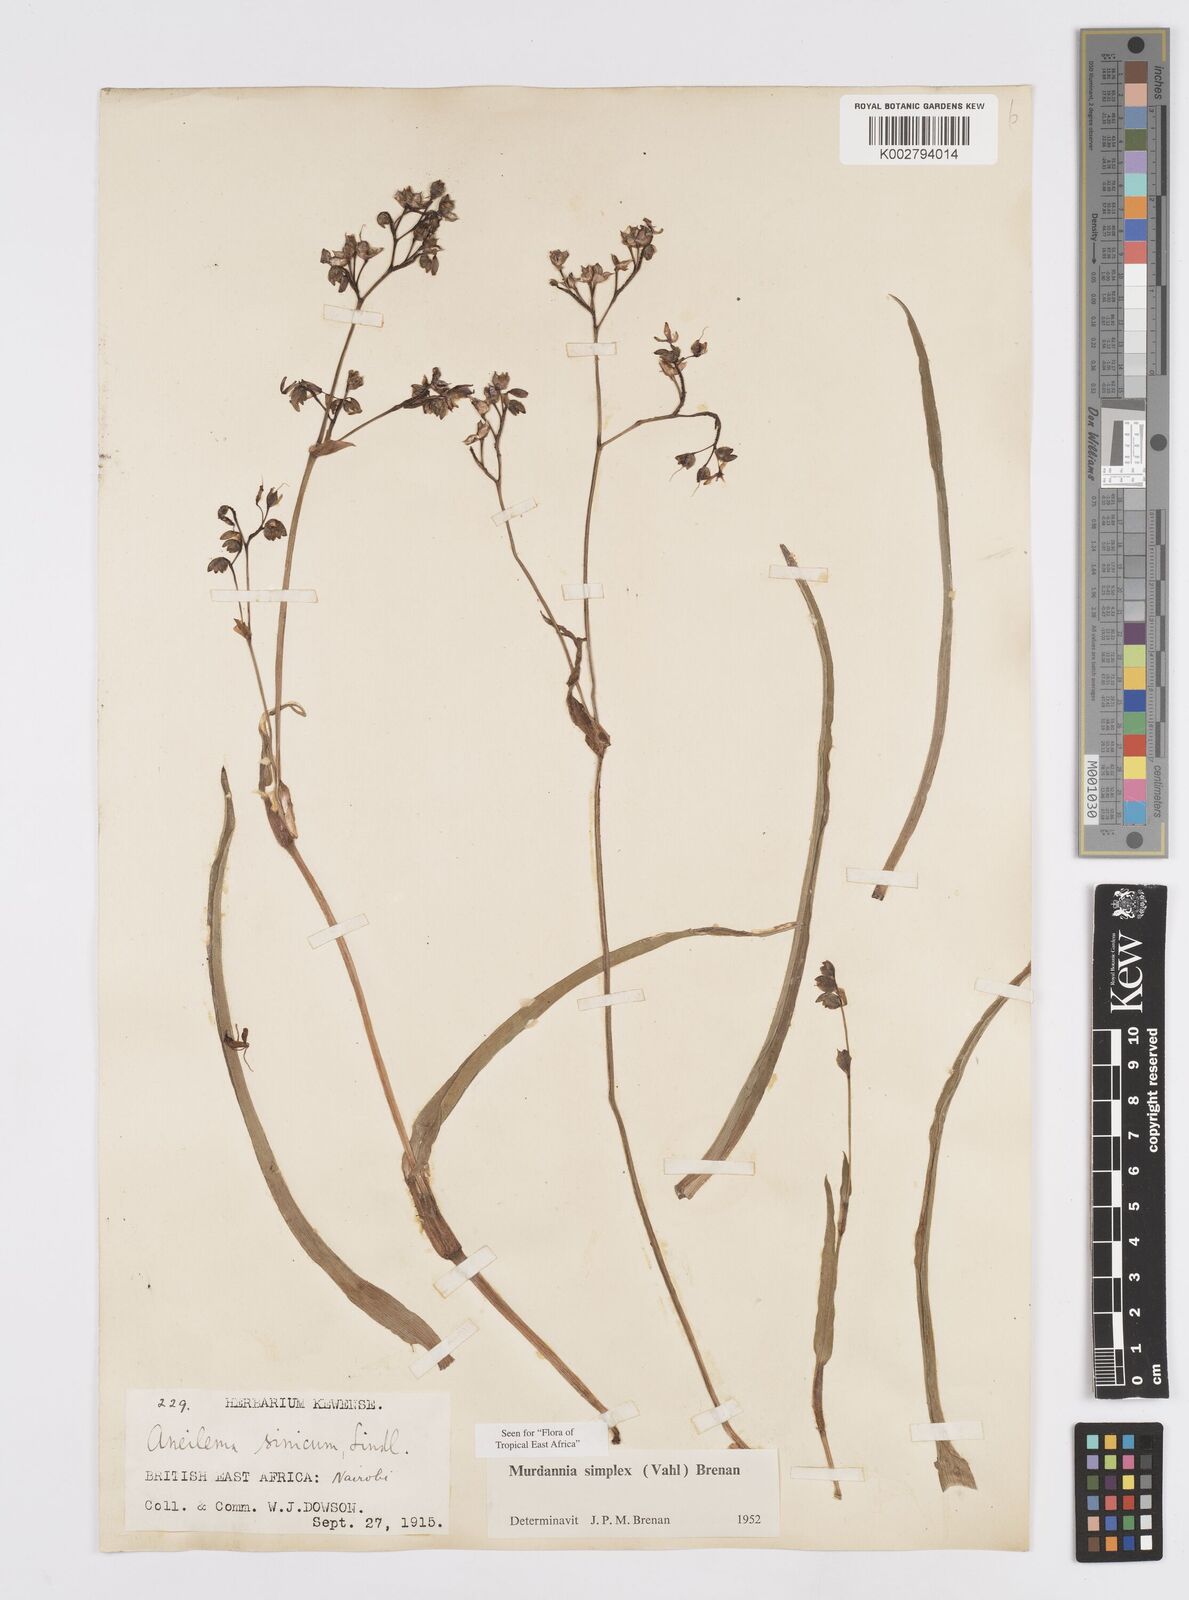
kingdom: Plantae
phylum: Tracheophyta
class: Liliopsida
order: Commelinales
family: Commelinaceae
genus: Murdannia
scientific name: Murdannia simplex
